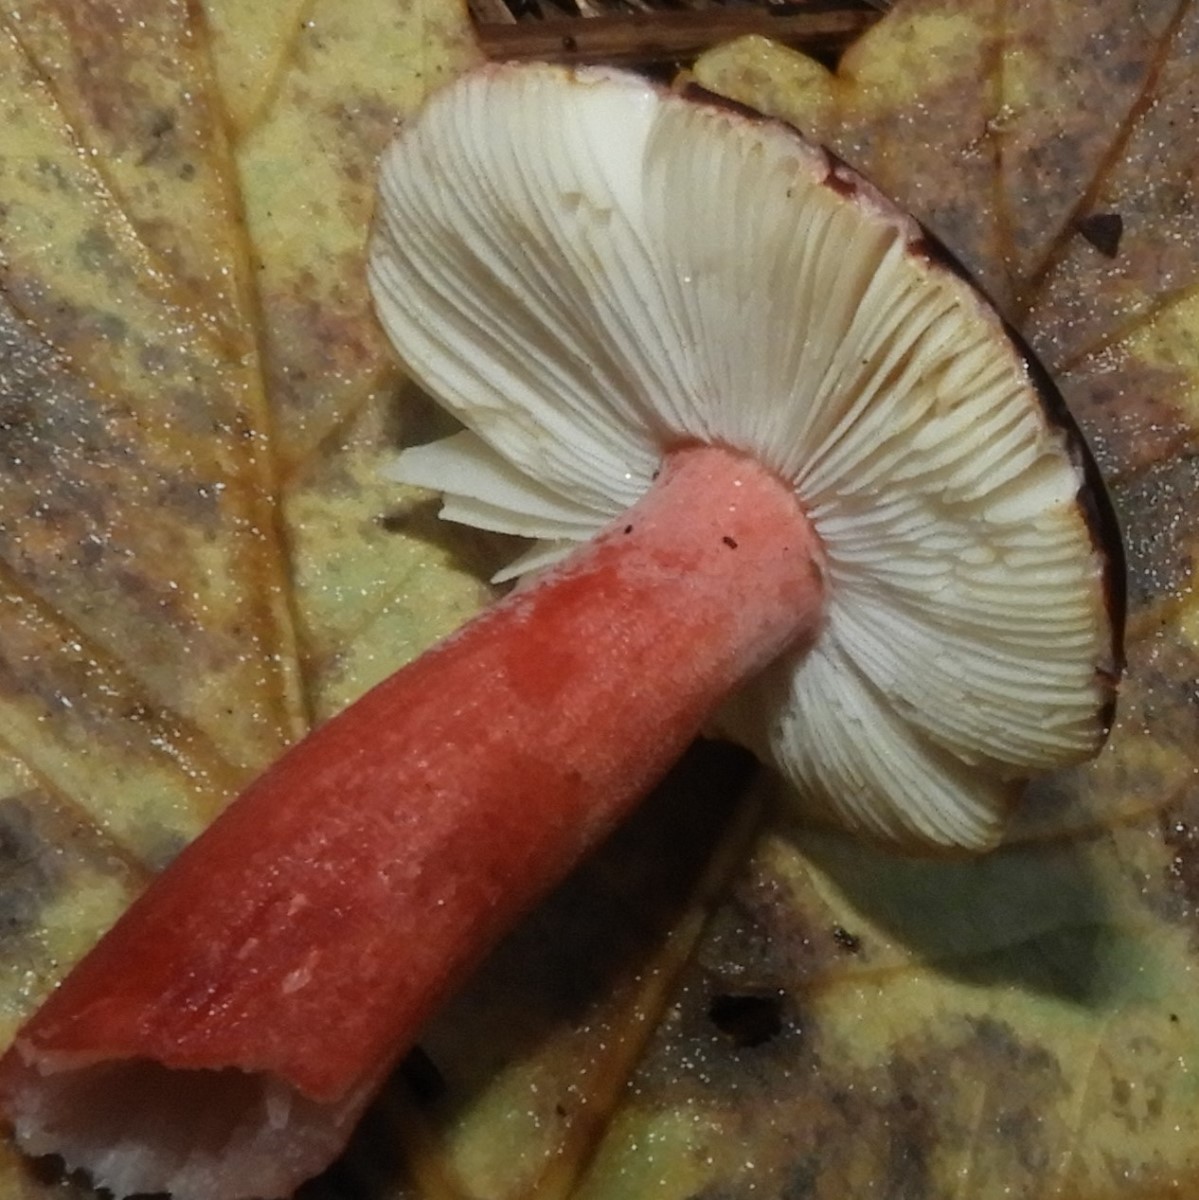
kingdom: Fungi
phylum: Basidiomycota
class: Agaricomycetes
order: Russulales
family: Russulaceae
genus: Russula
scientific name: Russula queletii
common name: Quélets skørhat
